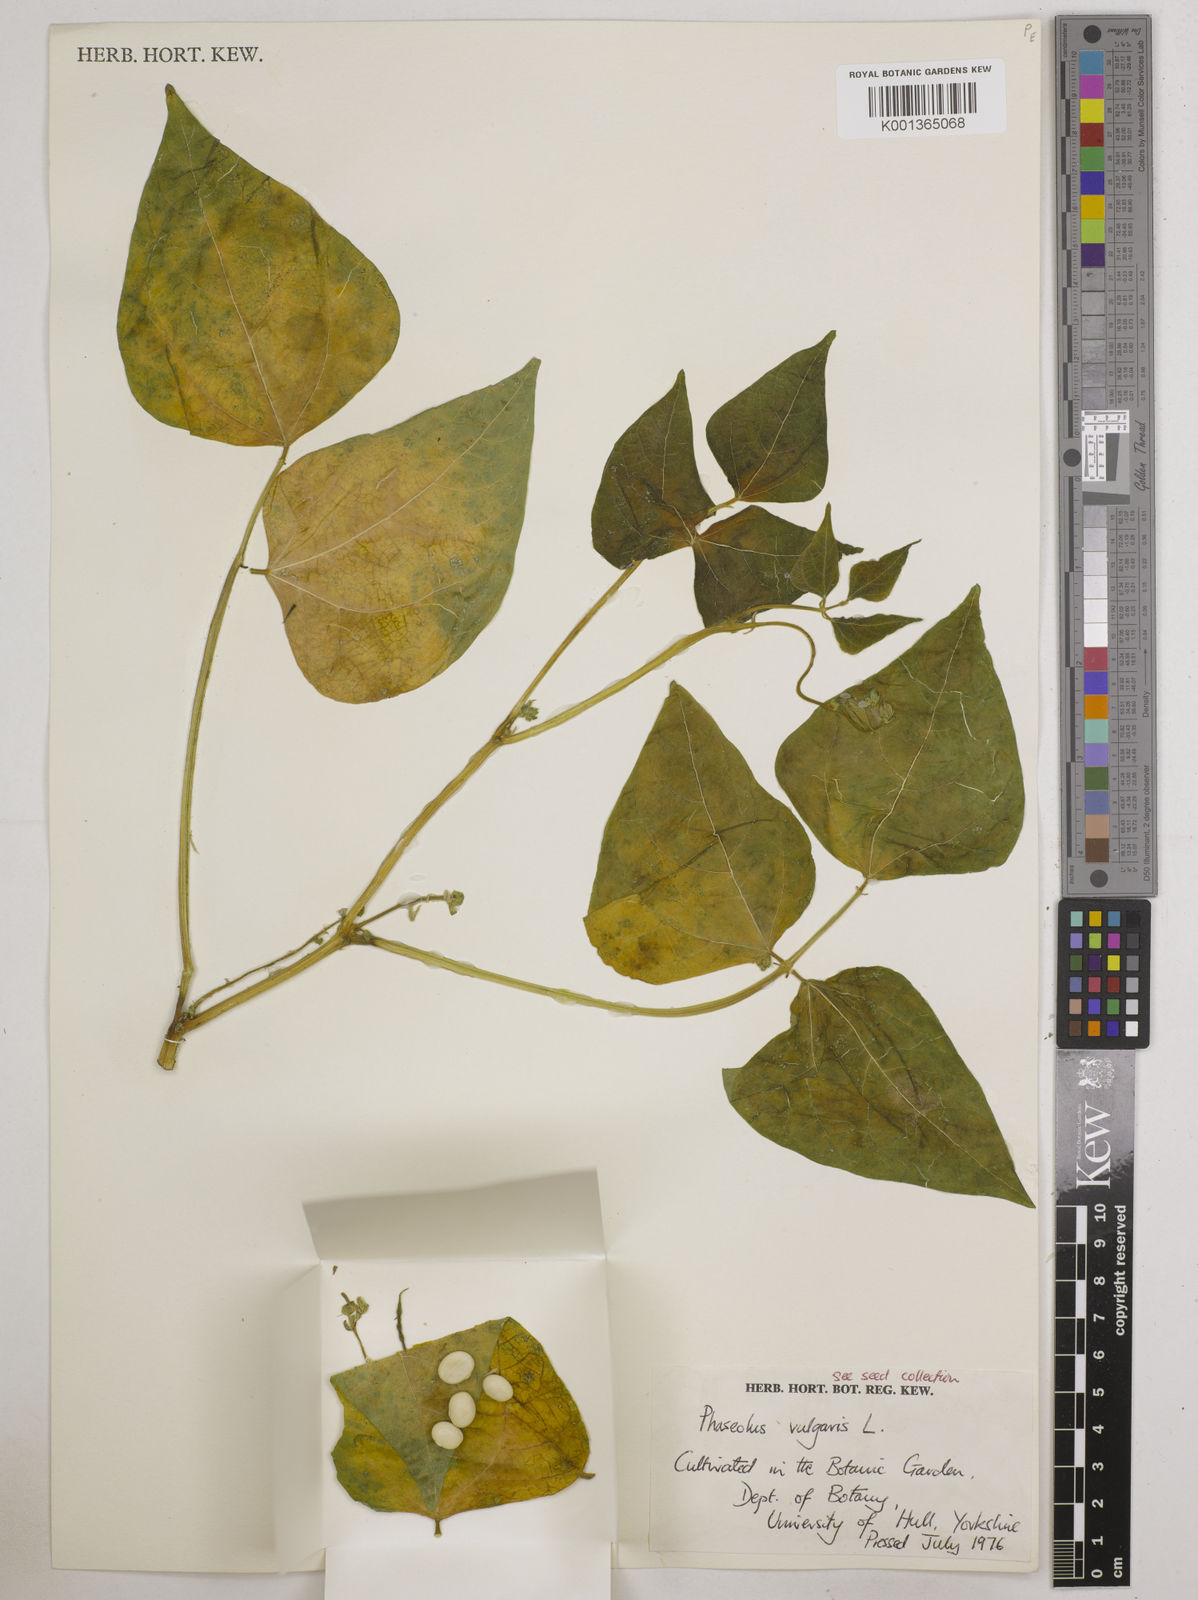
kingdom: Plantae
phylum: Tracheophyta
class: Magnoliopsida
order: Fabales
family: Fabaceae
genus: Phaseolus
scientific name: Phaseolus vulgaris
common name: Bean
